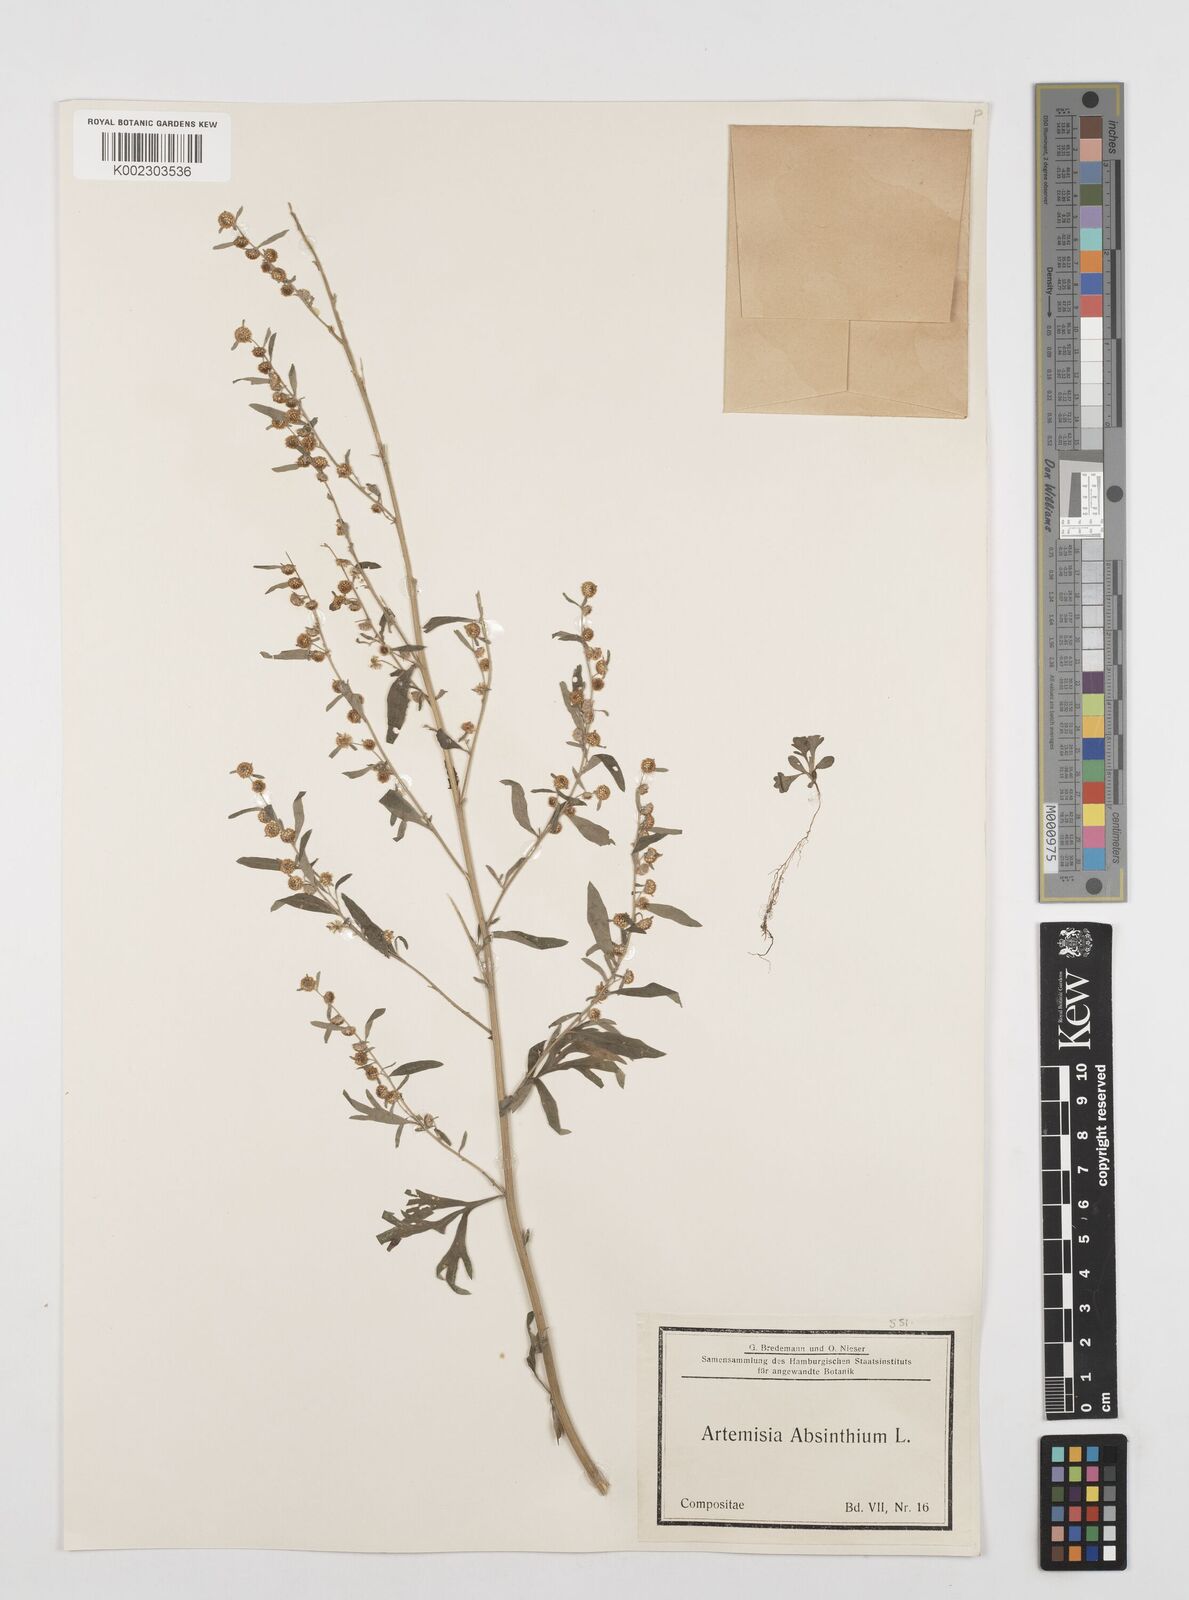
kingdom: Plantae
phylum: Tracheophyta
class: Magnoliopsida
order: Asterales
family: Asteraceae
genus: Artemisia
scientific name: Artemisia absinthium
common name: Wormwood
